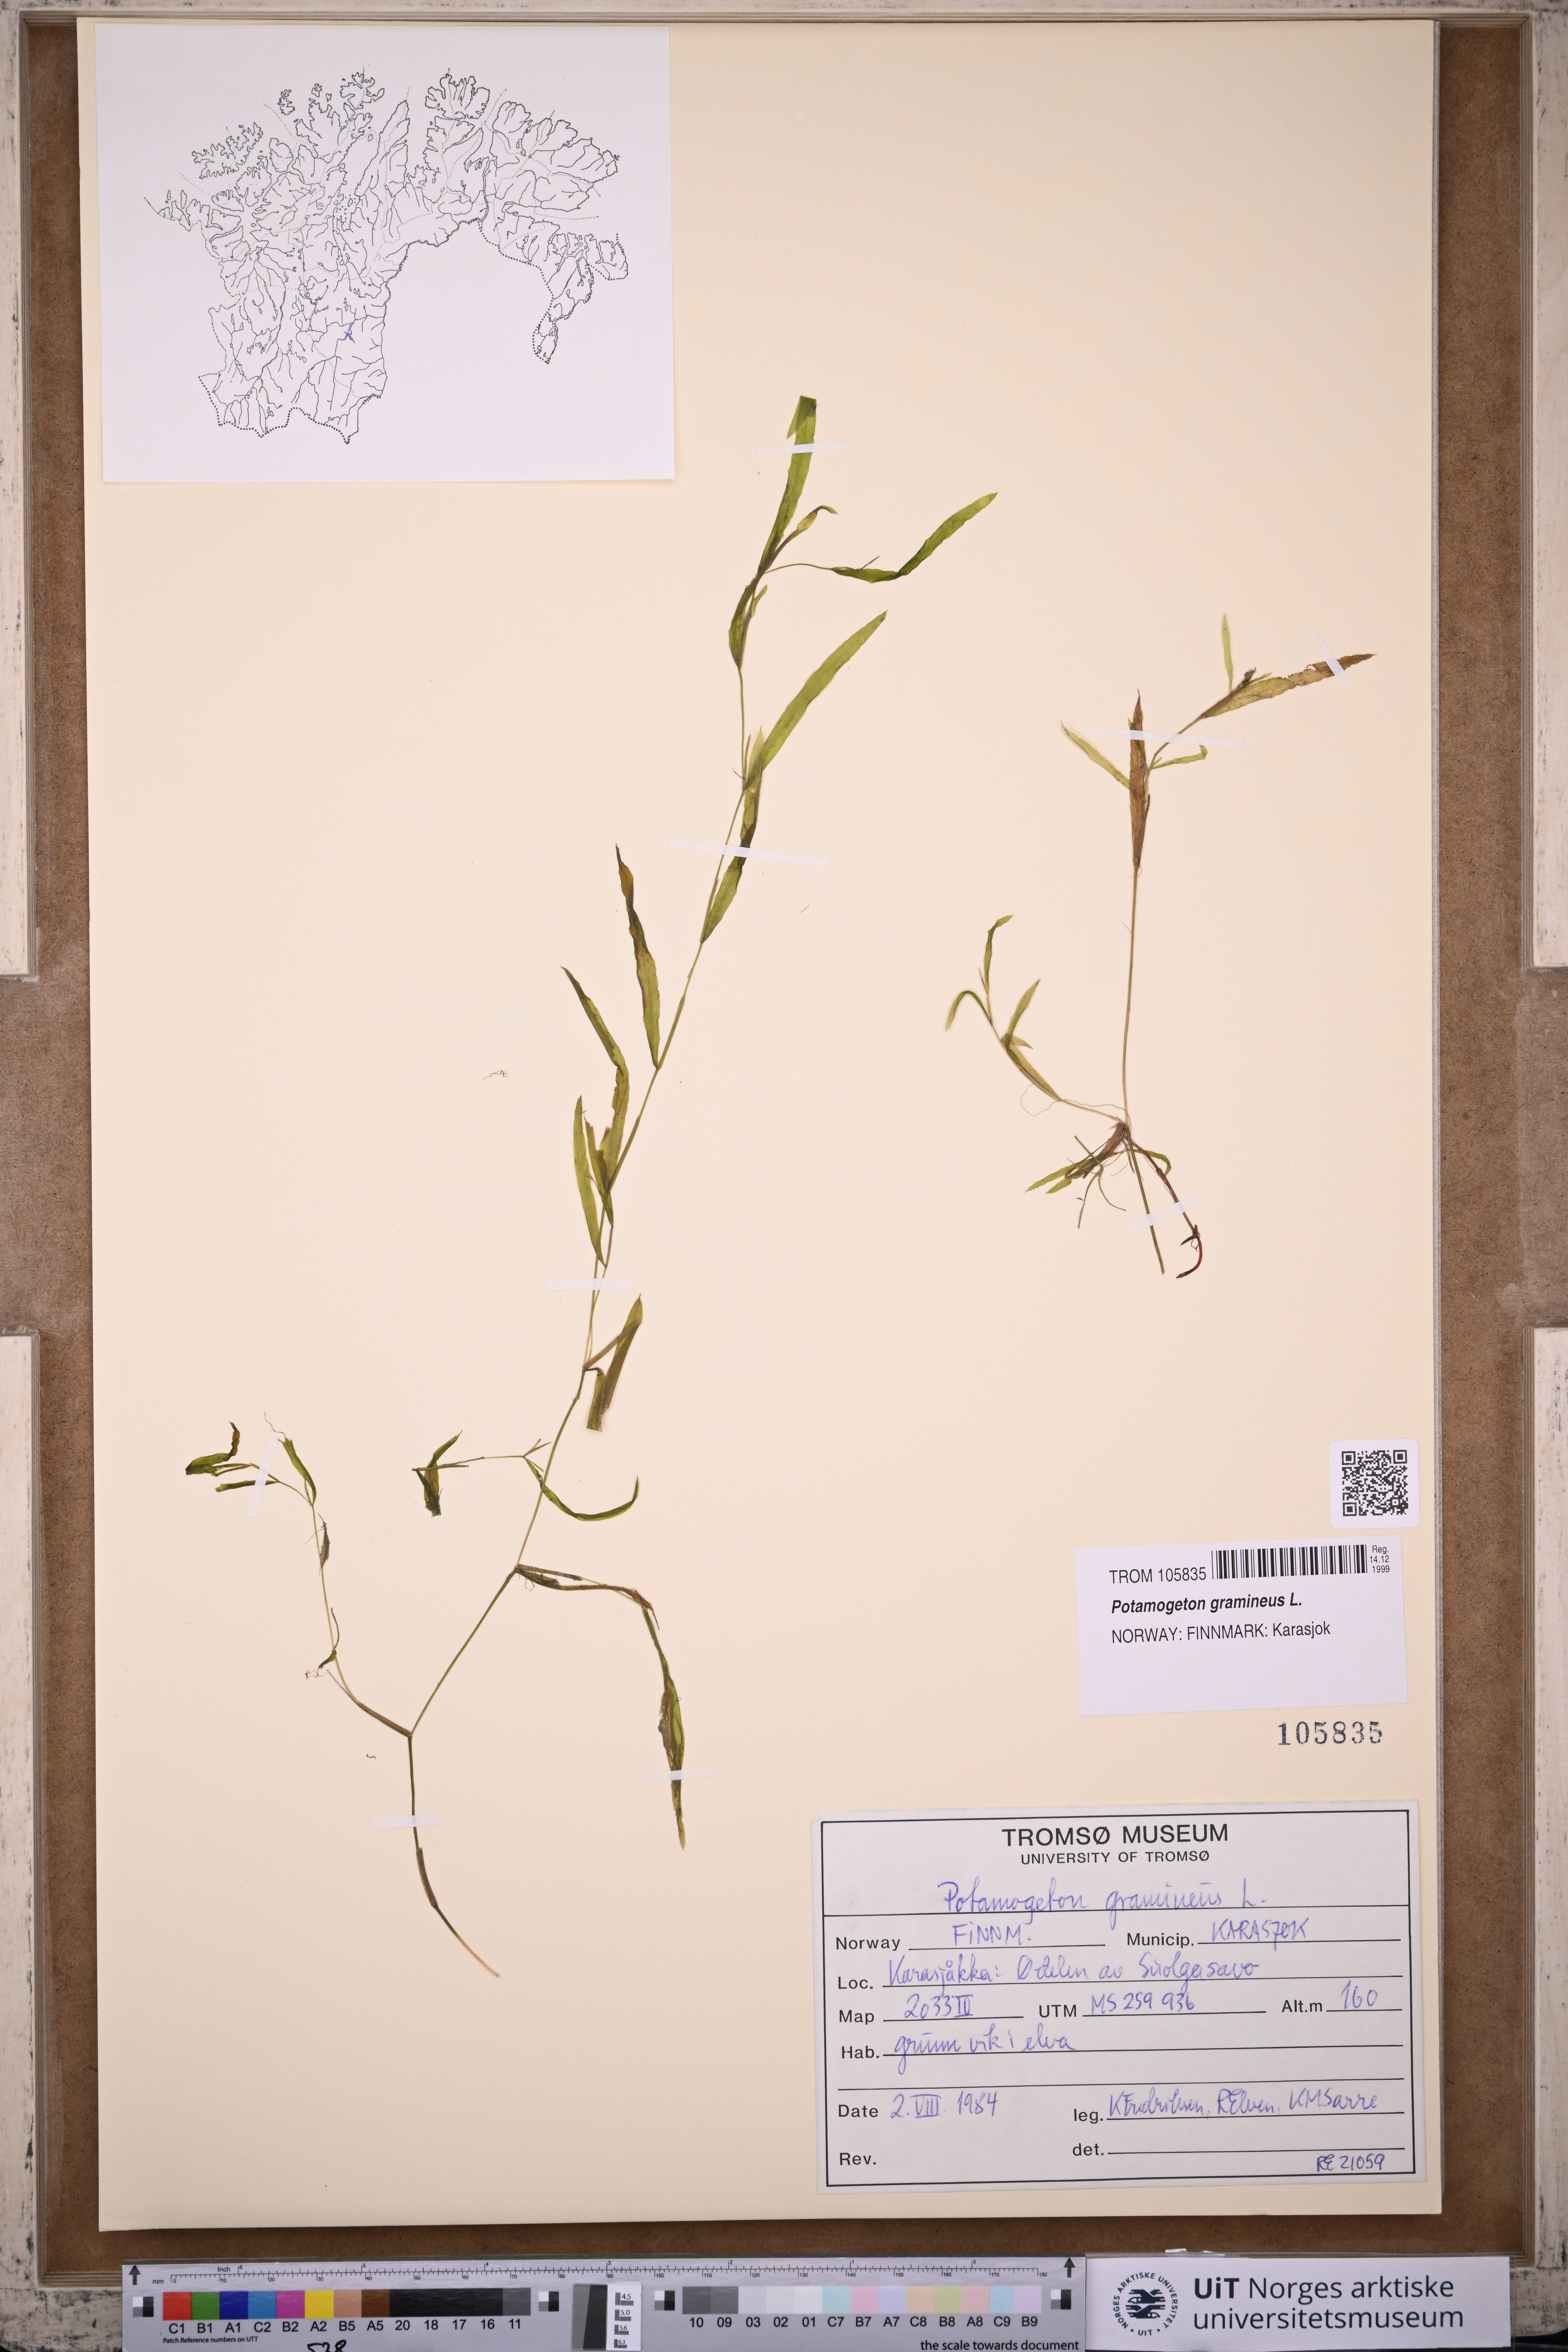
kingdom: Plantae
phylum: Tracheophyta
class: Liliopsida
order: Alismatales
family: Potamogetonaceae
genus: Potamogeton
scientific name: Potamogeton gramineus
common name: Various-leaved pondweed
